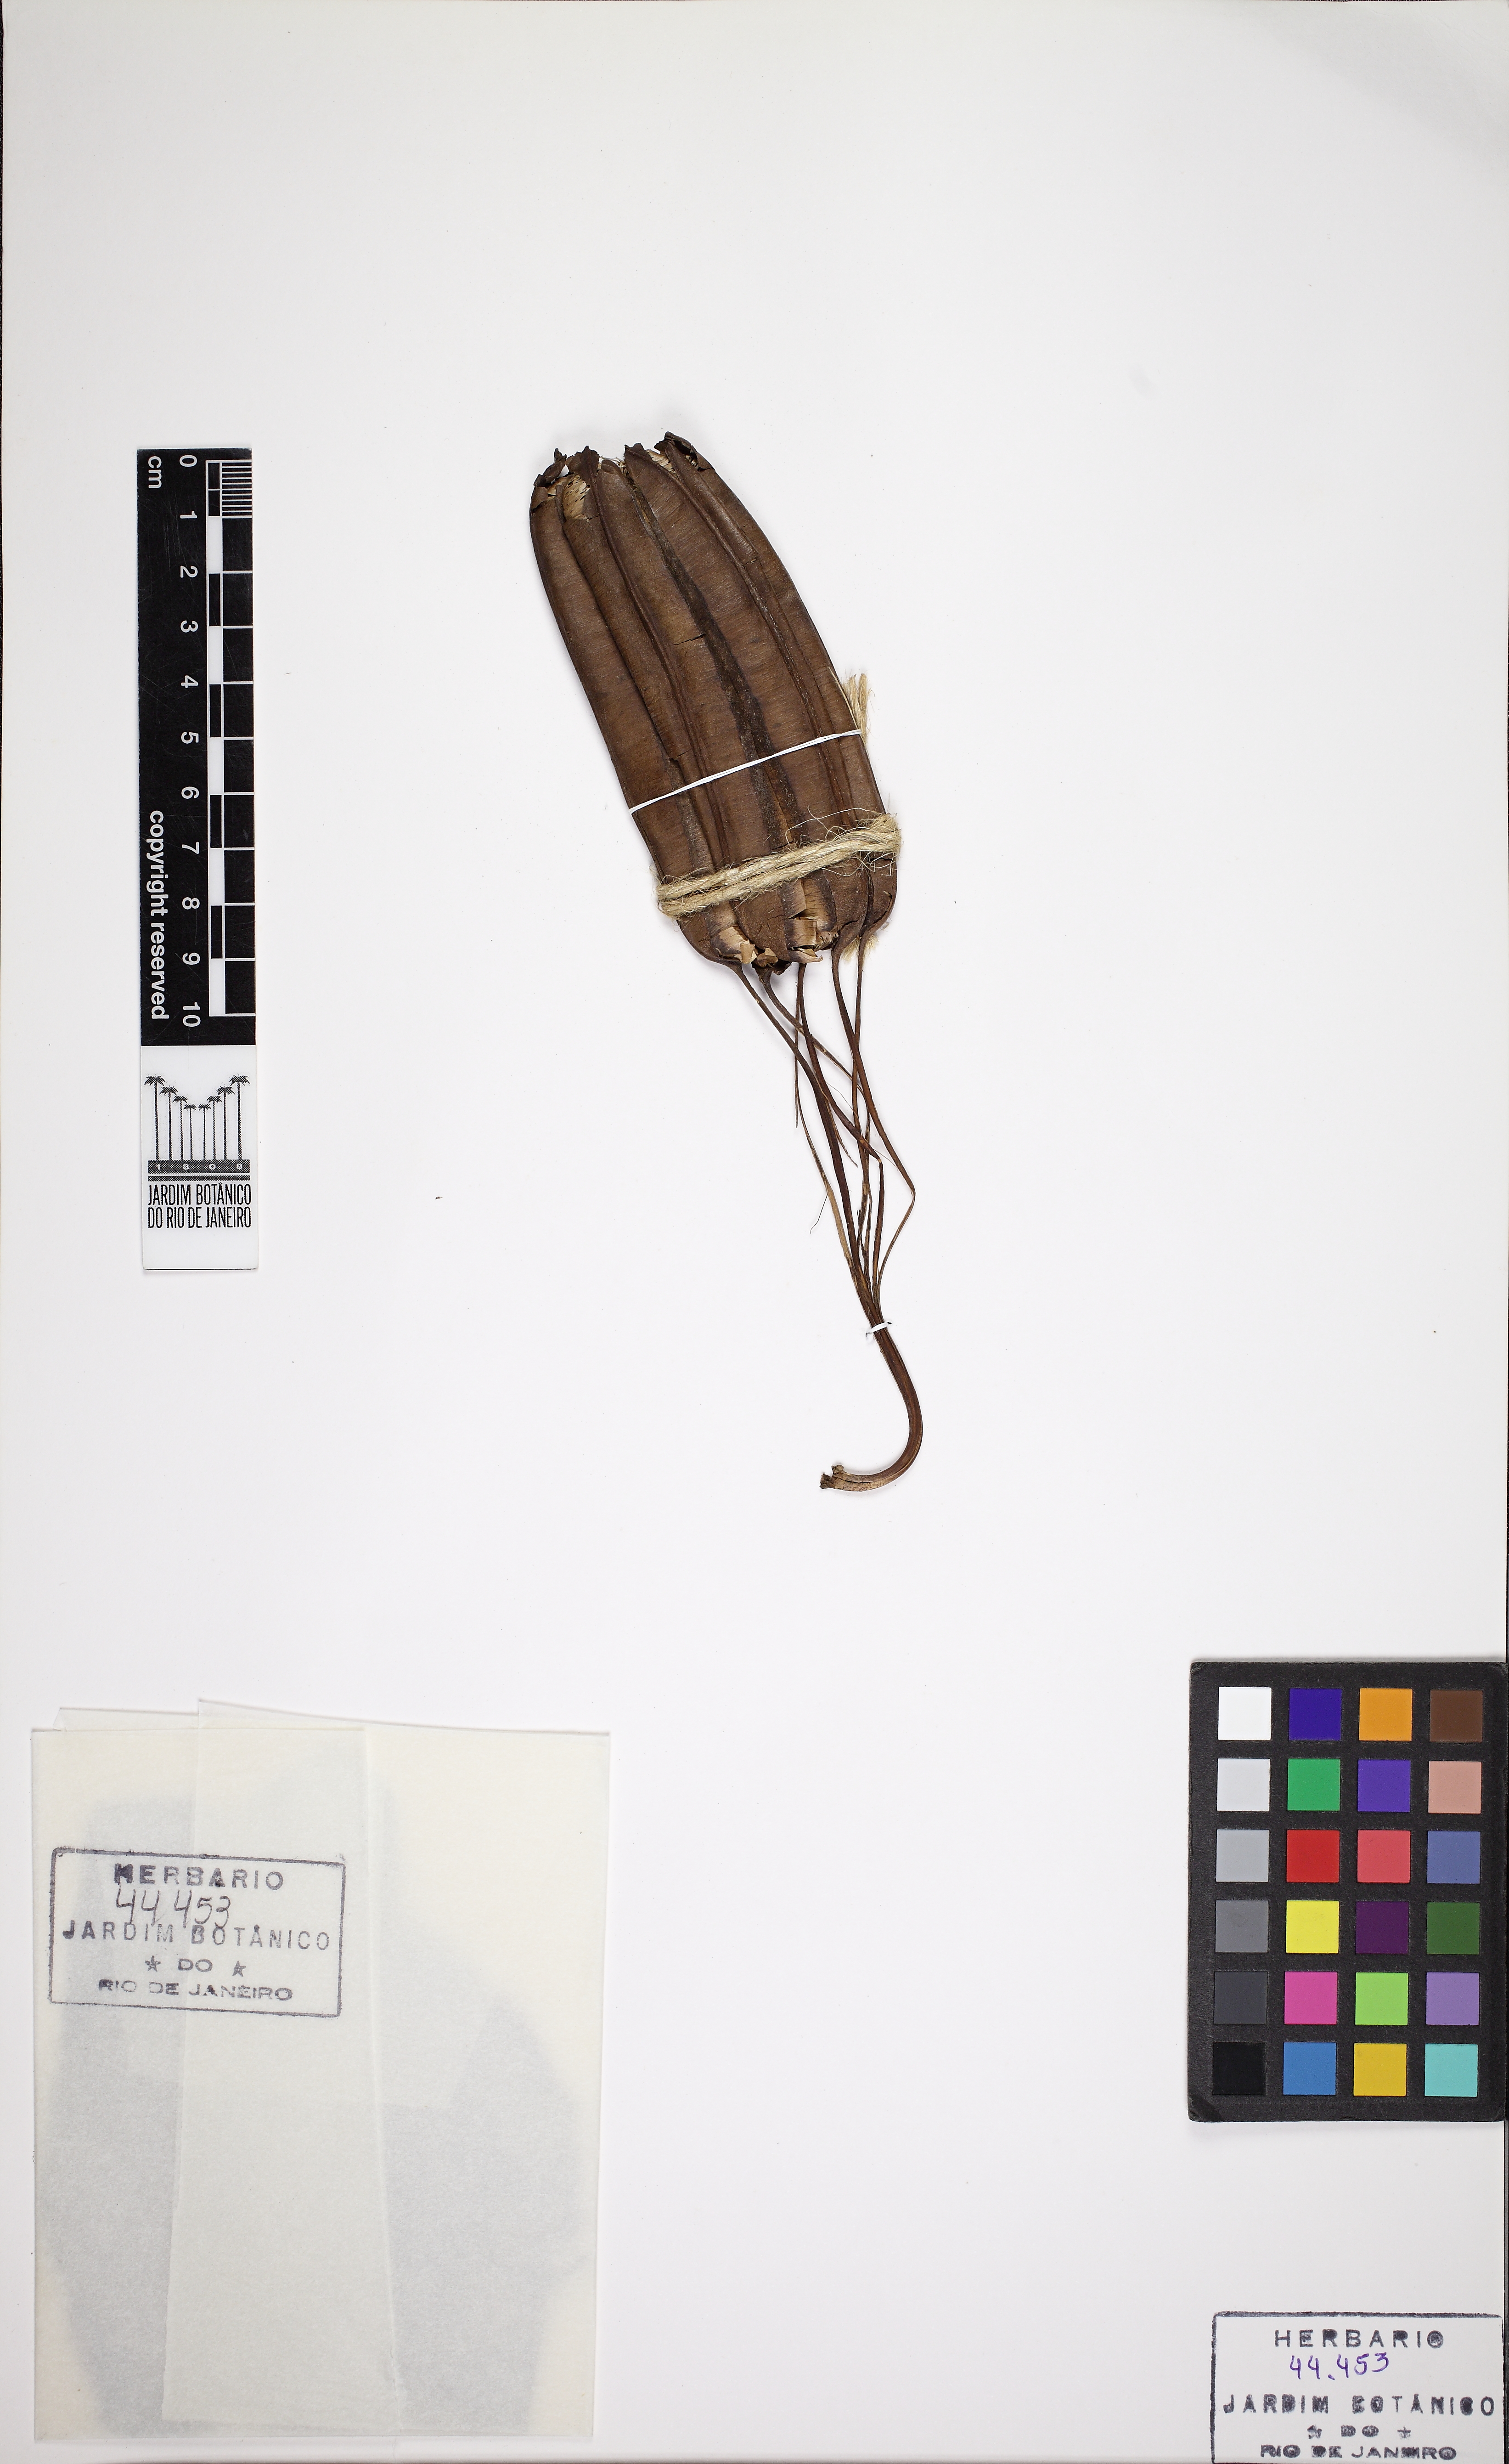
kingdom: Plantae
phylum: Tracheophyta
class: Magnoliopsida
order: Piperales
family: Aristolochiaceae
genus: Aristolochia
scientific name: Aristolochia labiata
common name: Mottled dutchman's pipe
